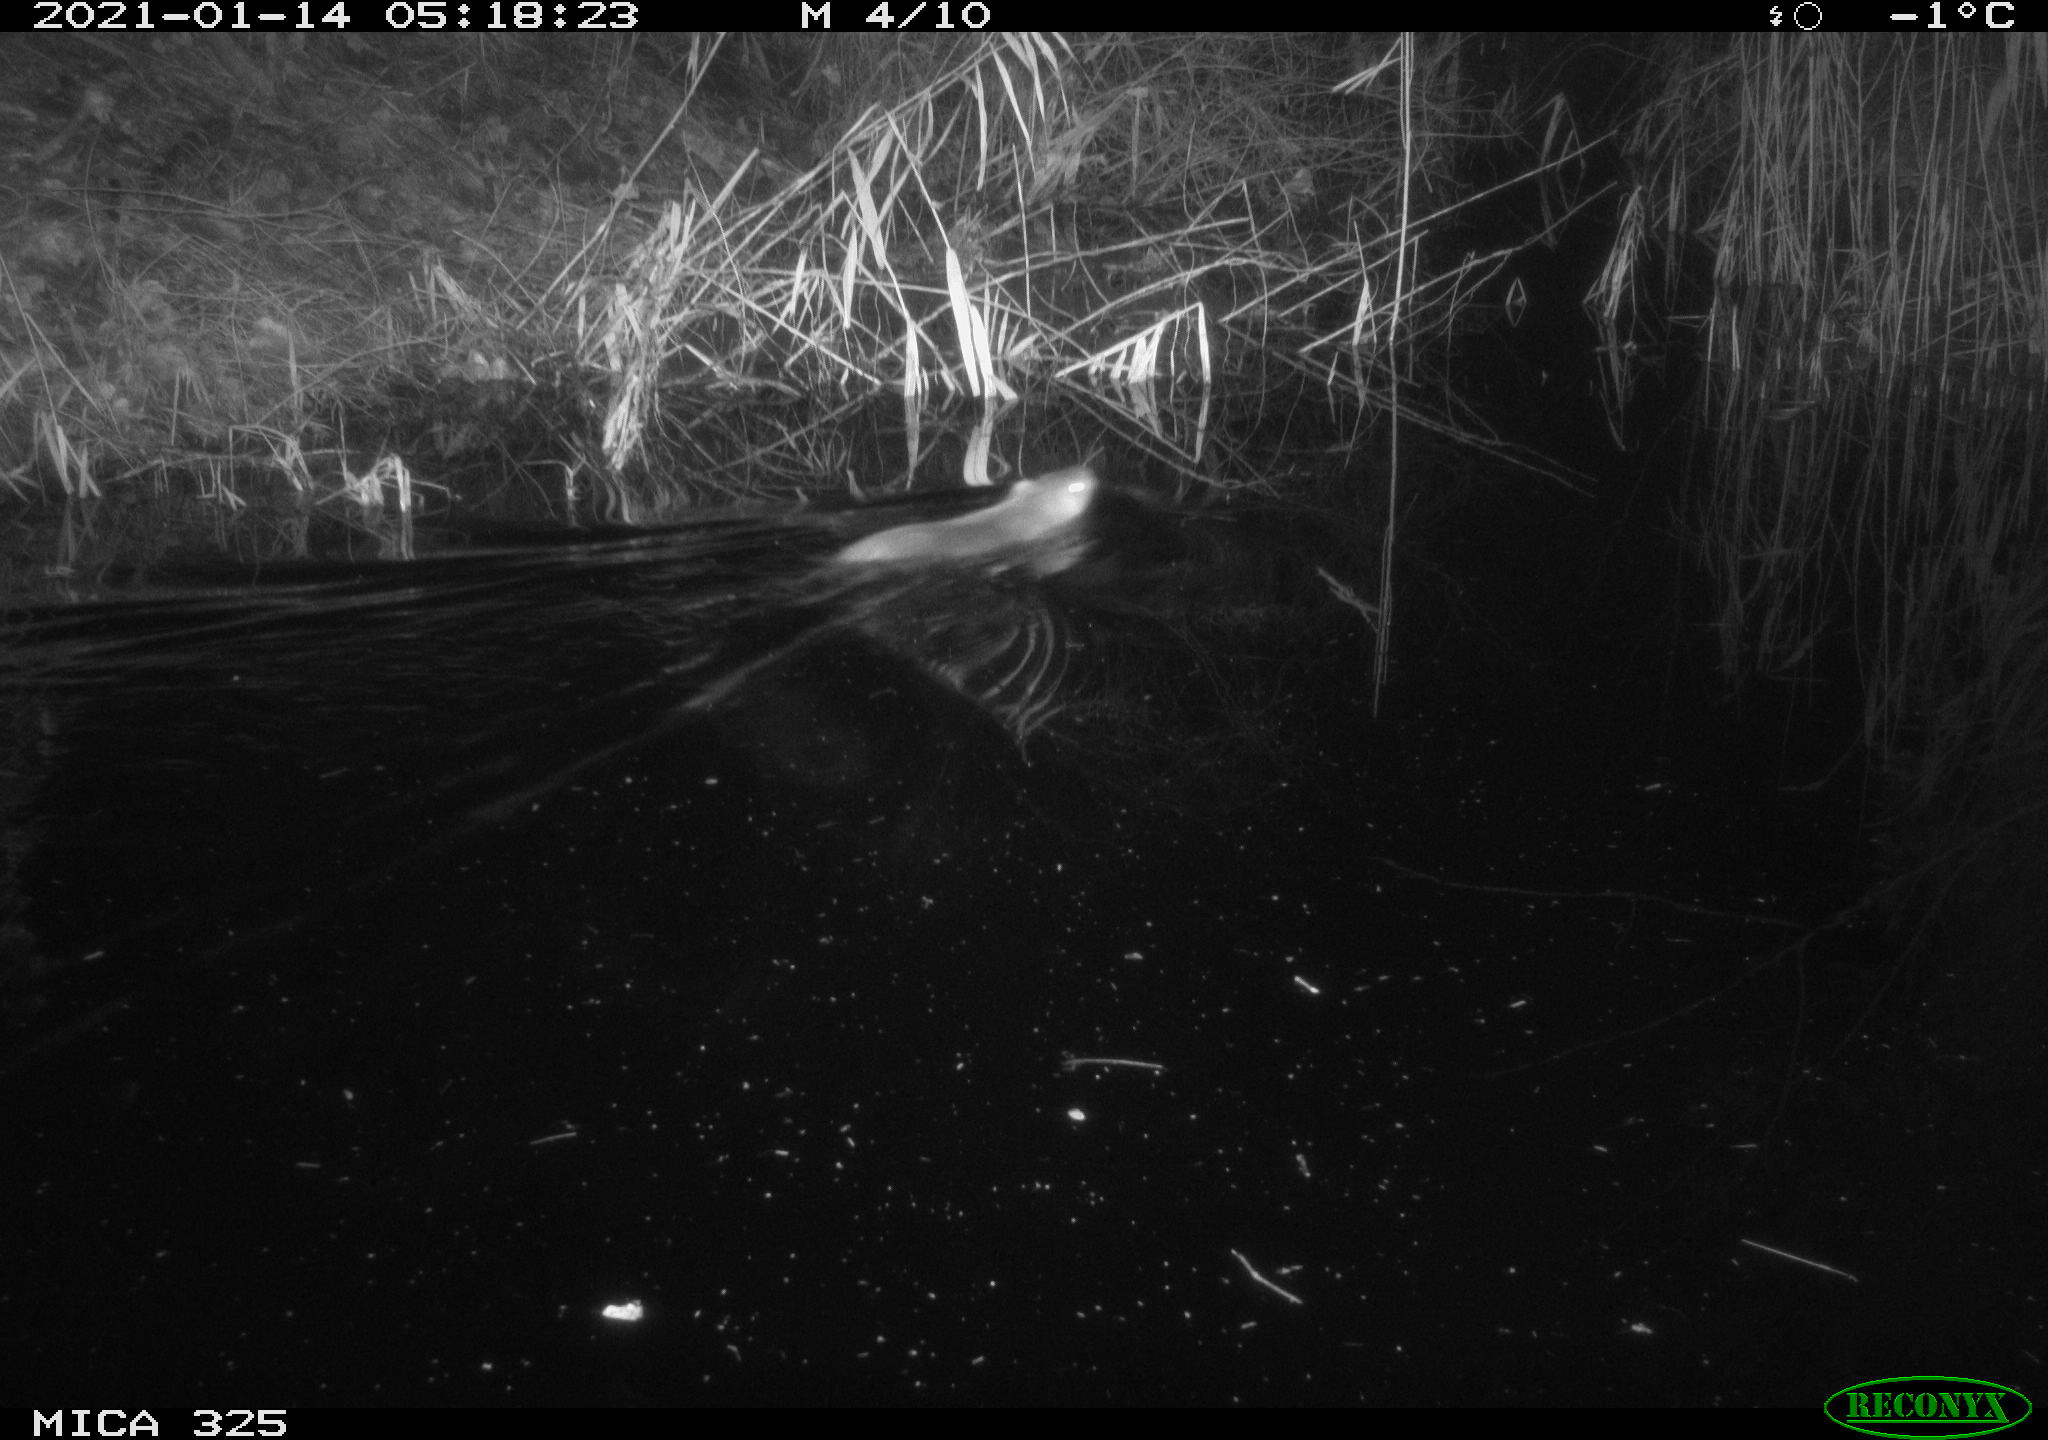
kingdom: Animalia
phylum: Chordata
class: Mammalia
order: Rodentia
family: Myocastoridae
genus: Myocastor
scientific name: Myocastor coypus
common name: Coypu
